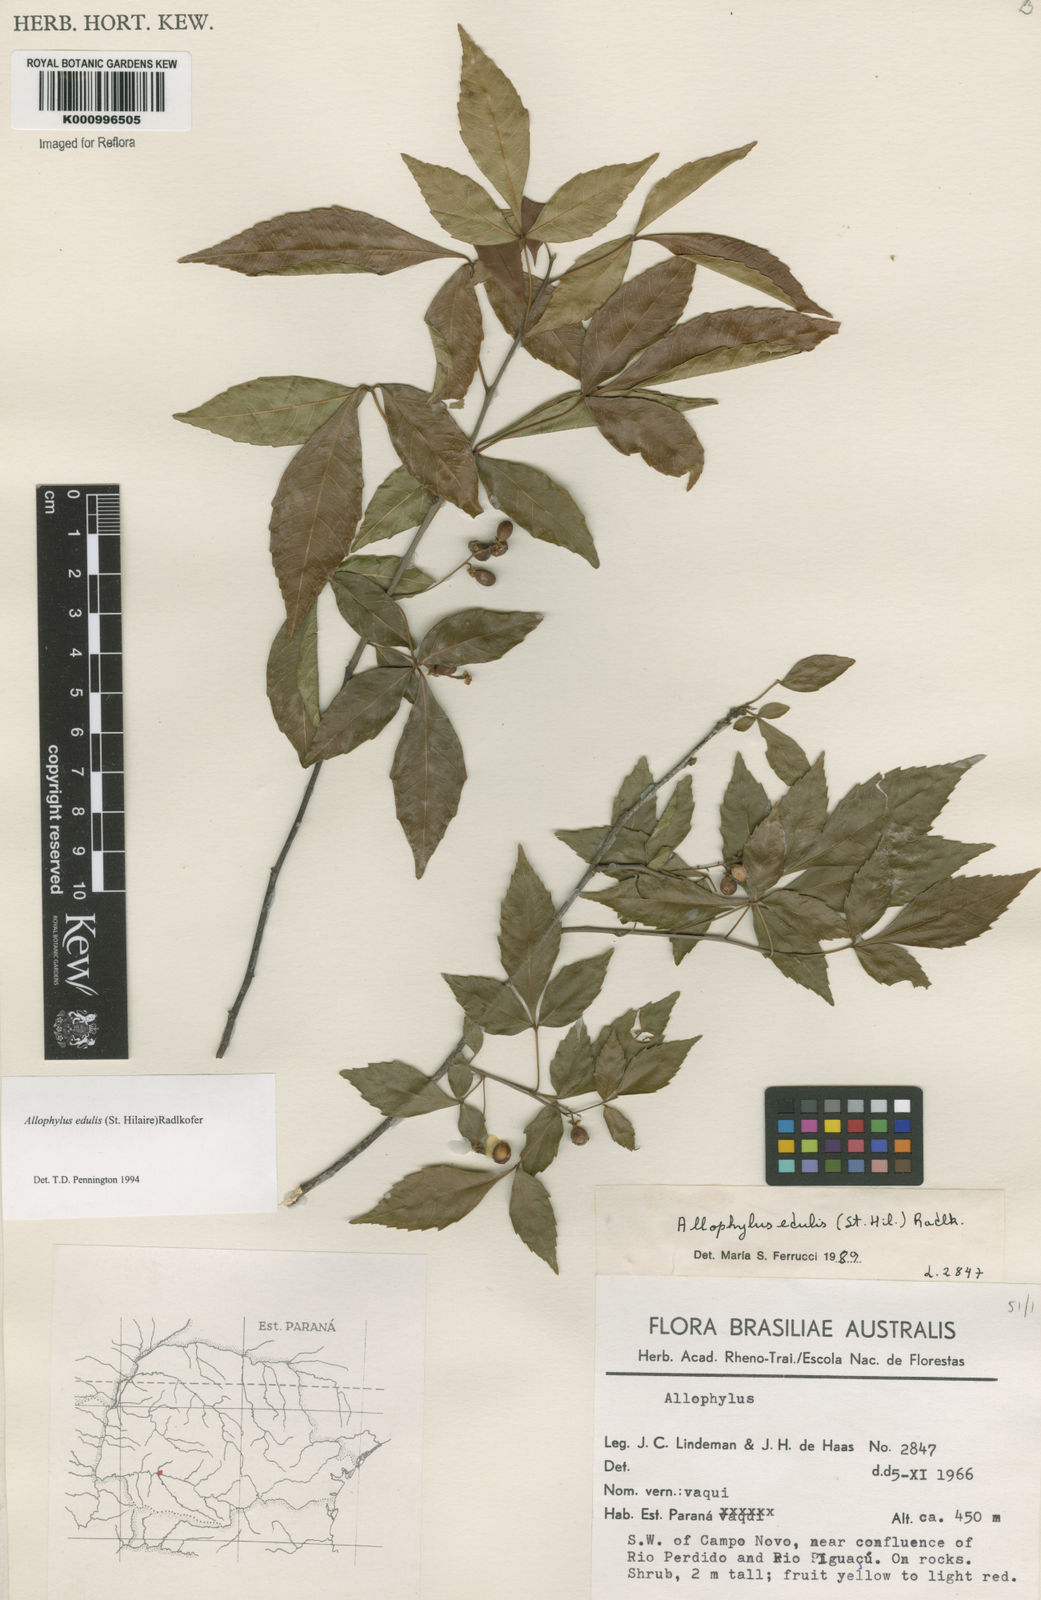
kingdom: Plantae
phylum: Tracheophyta
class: Magnoliopsida
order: Sapindales
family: Sapindaceae
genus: Allophylus
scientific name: Allophylus edulis
